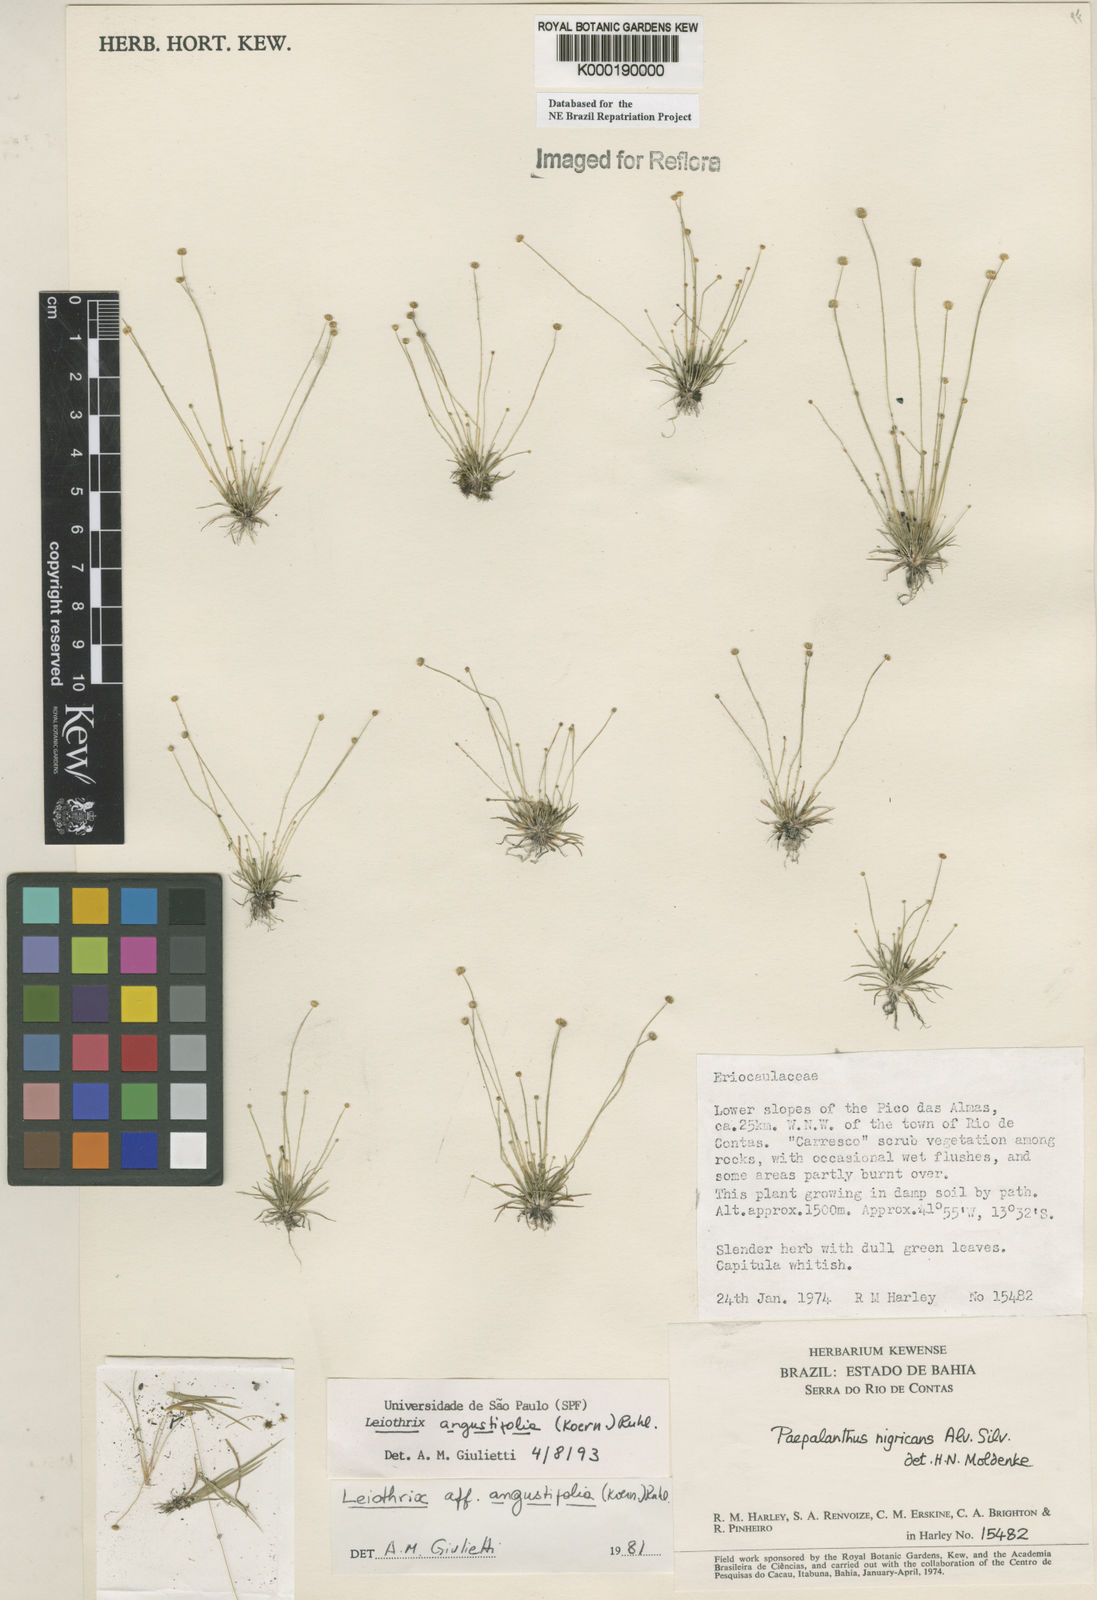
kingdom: Plantae
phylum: Tracheophyta
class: Liliopsida
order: Poales
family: Eriocaulaceae
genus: Leiothrix
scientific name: Leiothrix angustifolia
